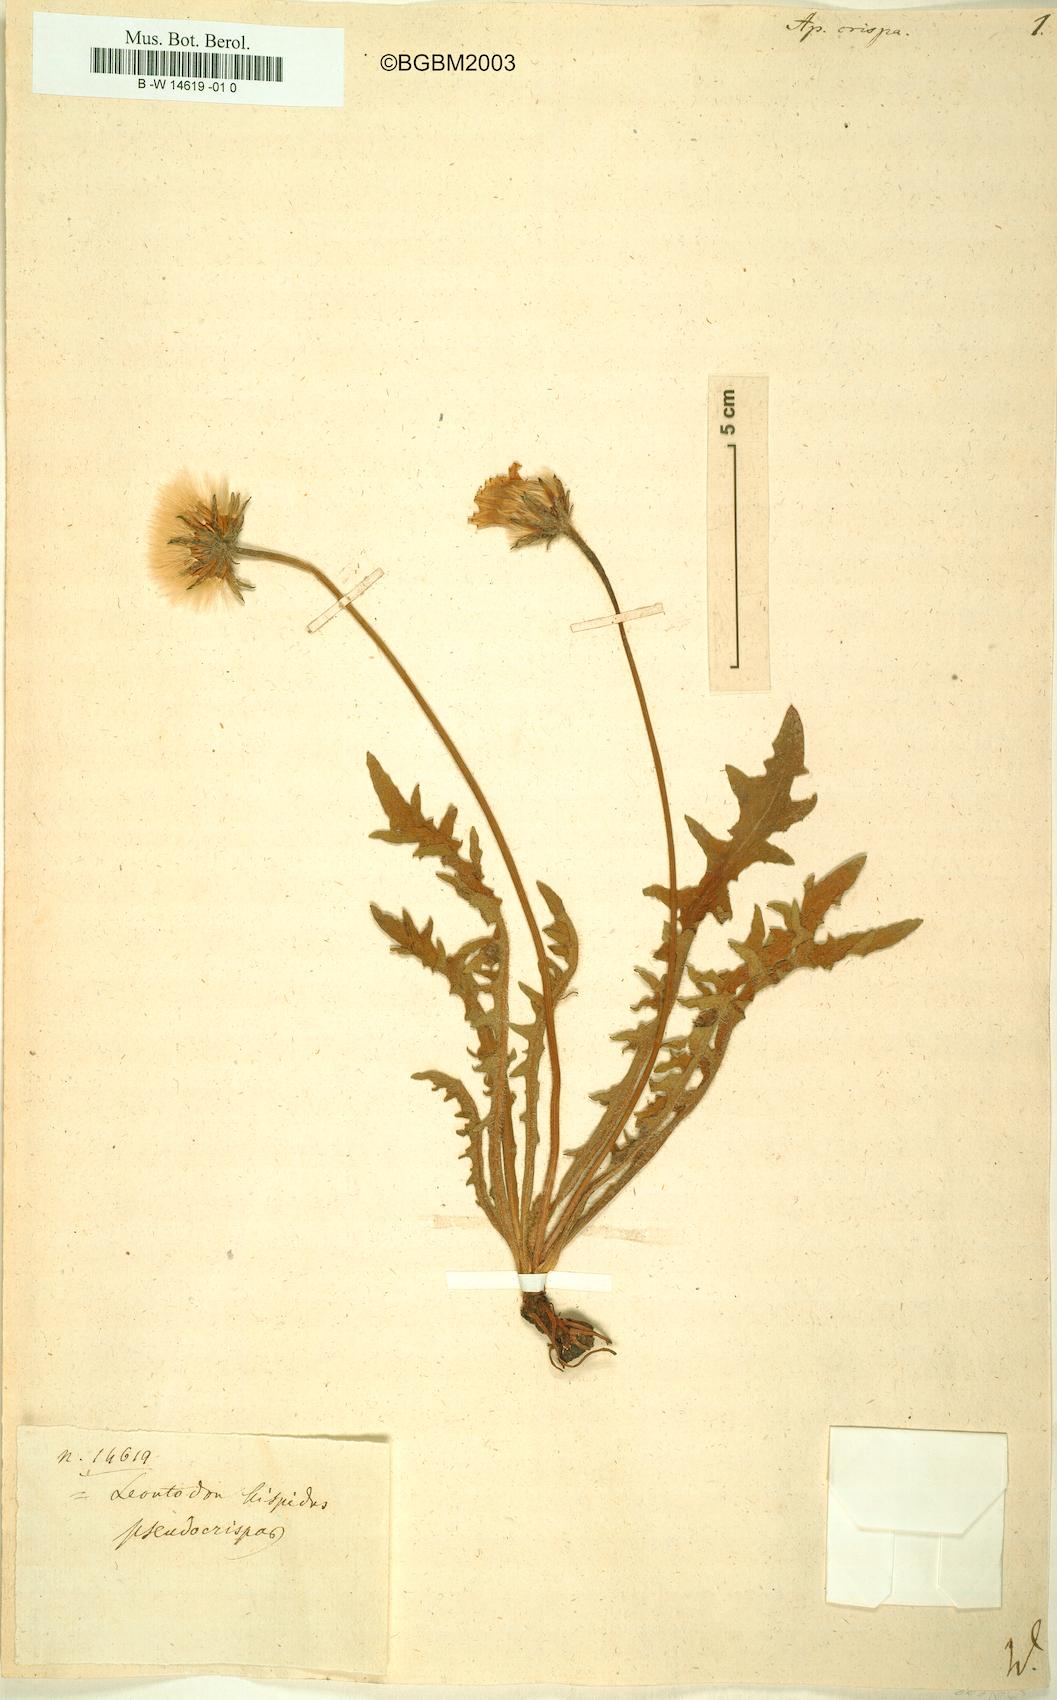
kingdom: Plantae
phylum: Tracheophyta
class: Magnoliopsida
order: Asterales
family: Asteraceae
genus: Leontodon
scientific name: Leontodon crispus
